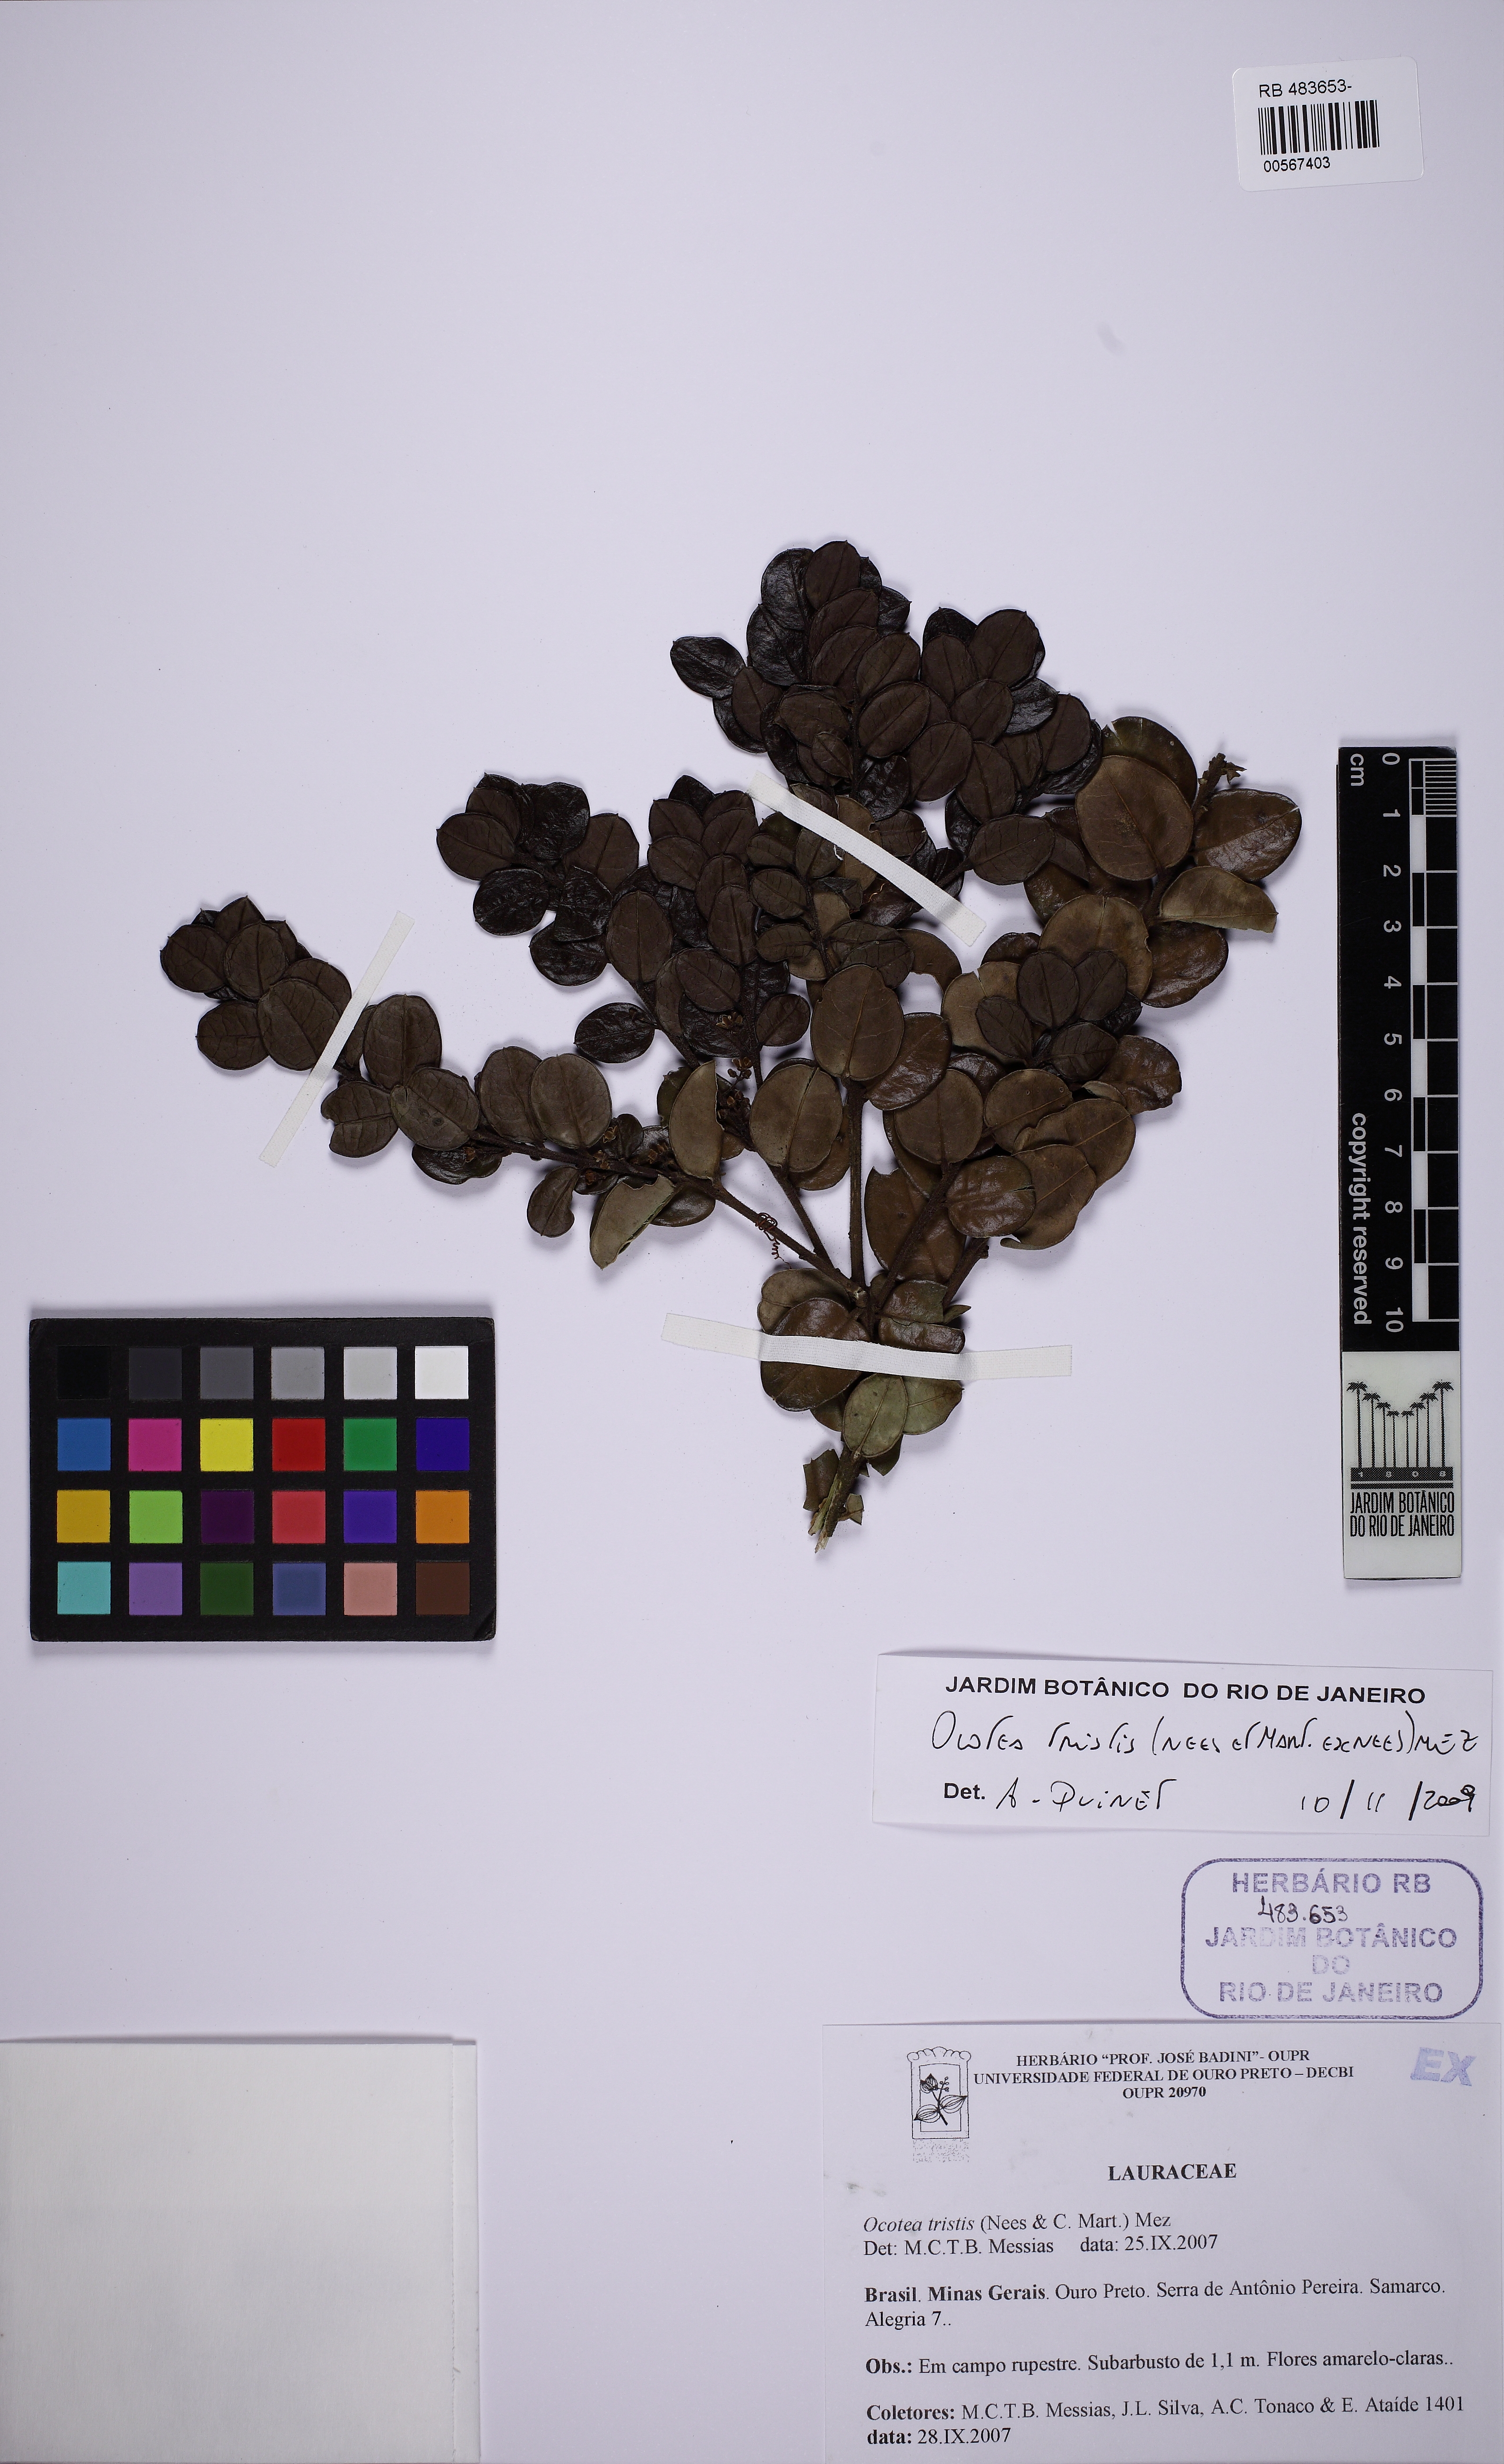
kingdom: Plantae
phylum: Tracheophyta
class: Magnoliopsida
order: Laurales
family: Lauraceae
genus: Mespilodaphne
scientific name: Mespilodaphne tristis
